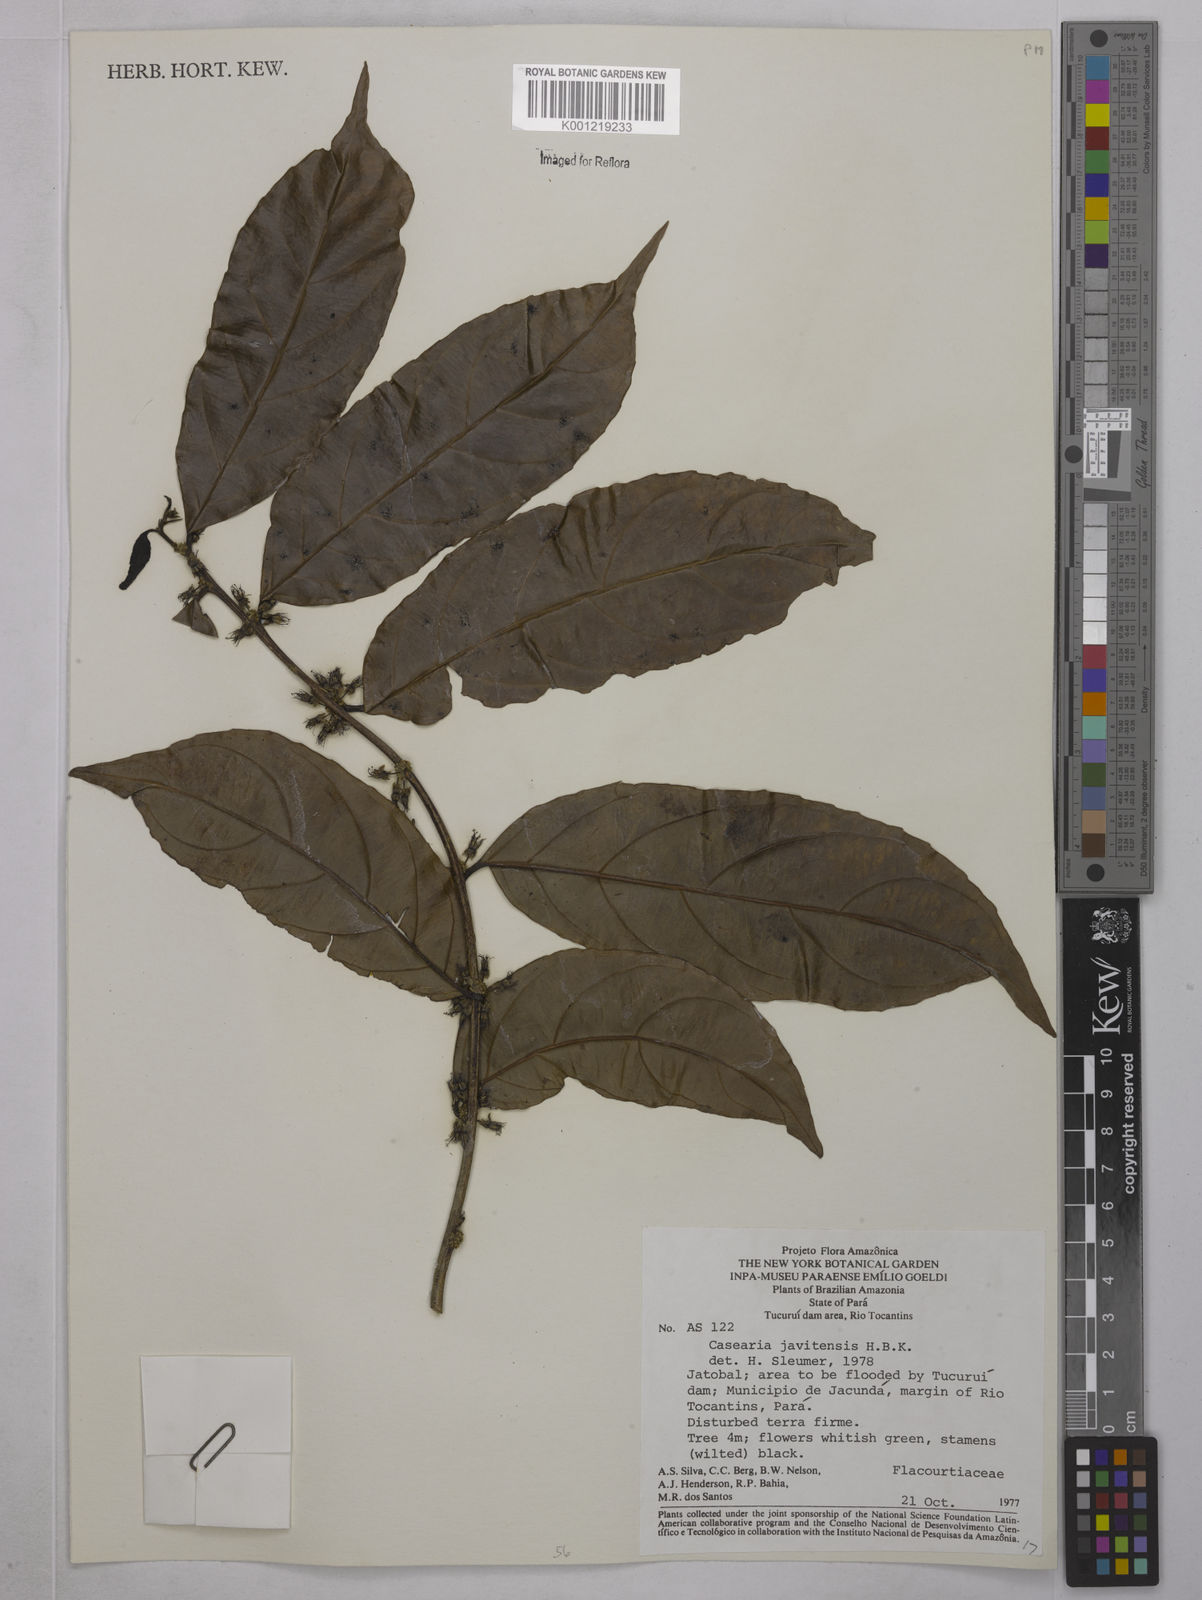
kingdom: Plantae
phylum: Tracheophyta
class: Magnoliopsida
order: Malpighiales
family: Salicaceae
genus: Piparea
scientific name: Piparea multiflora
